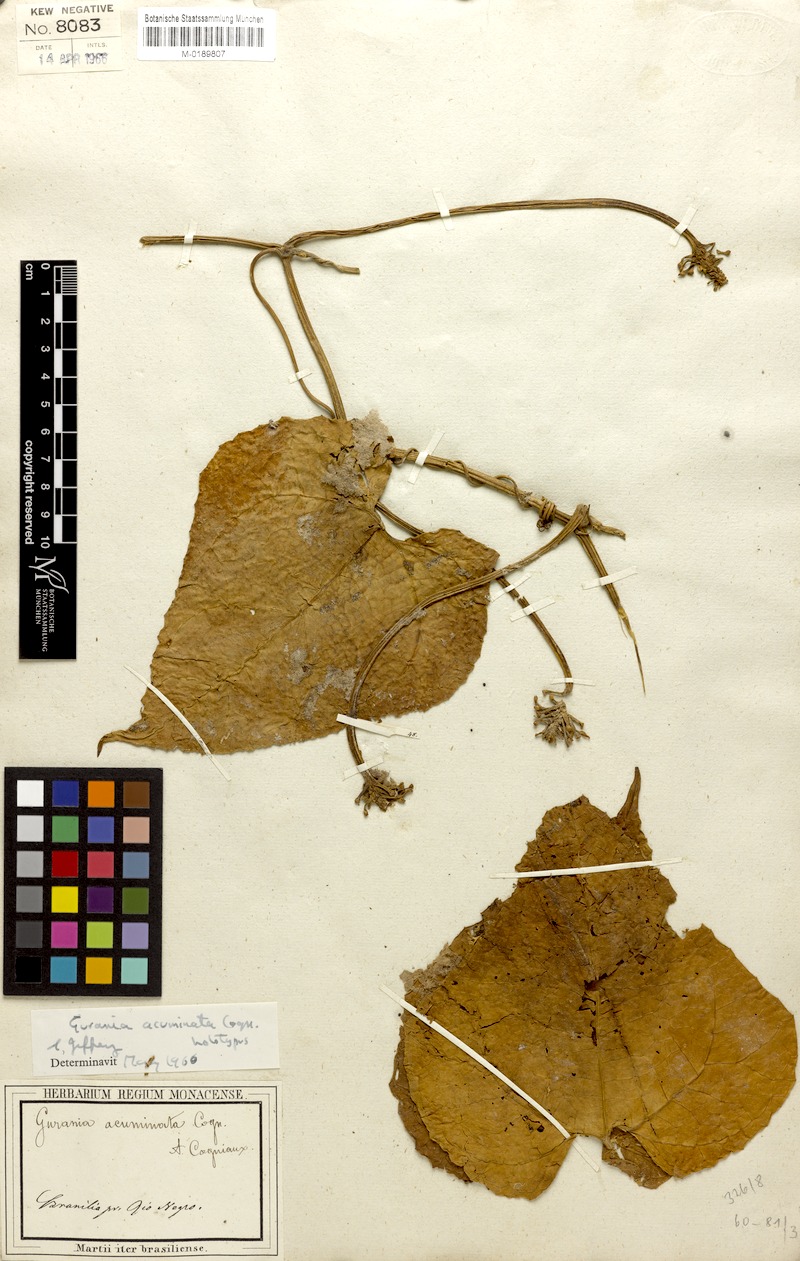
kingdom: Plantae
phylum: Tracheophyta
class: Magnoliopsida
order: Cucurbitales
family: Cucurbitaceae
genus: Gurania
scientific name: Gurania acuminata
